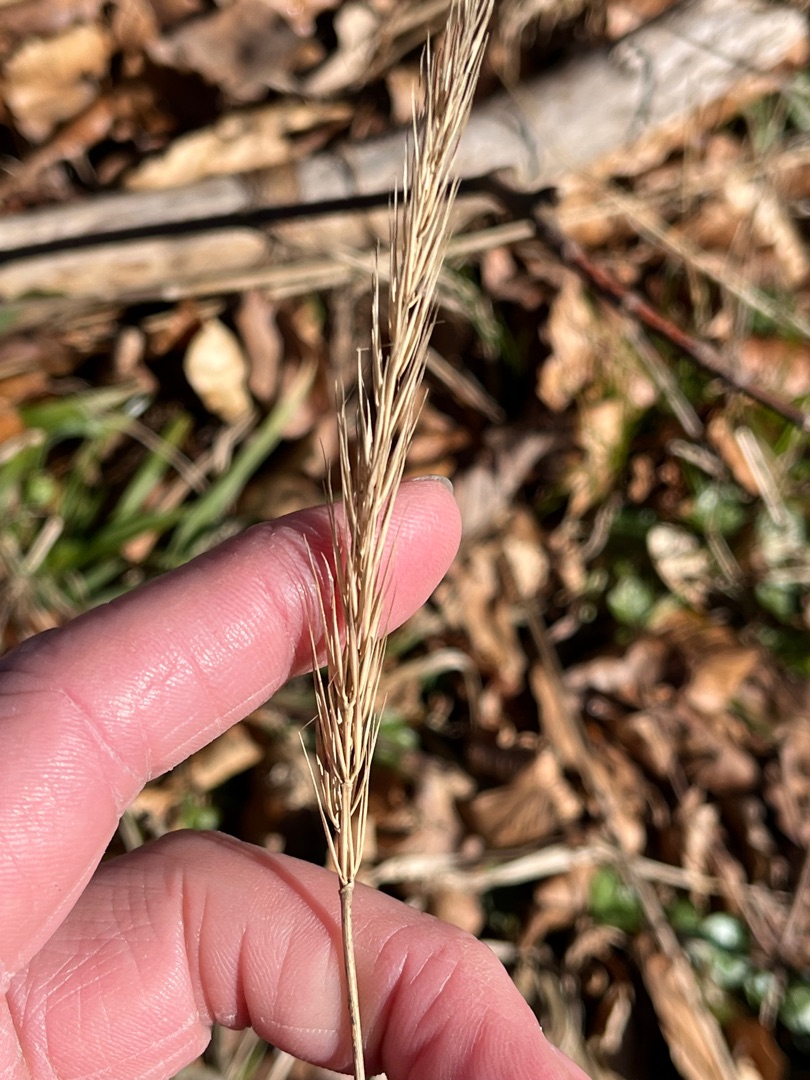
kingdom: Plantae
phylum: Tracheophyta
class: Liliopsida
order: Poales
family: Poaceae
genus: Hordelymus
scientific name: Hordelymus europaeus
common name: Skovbyg
